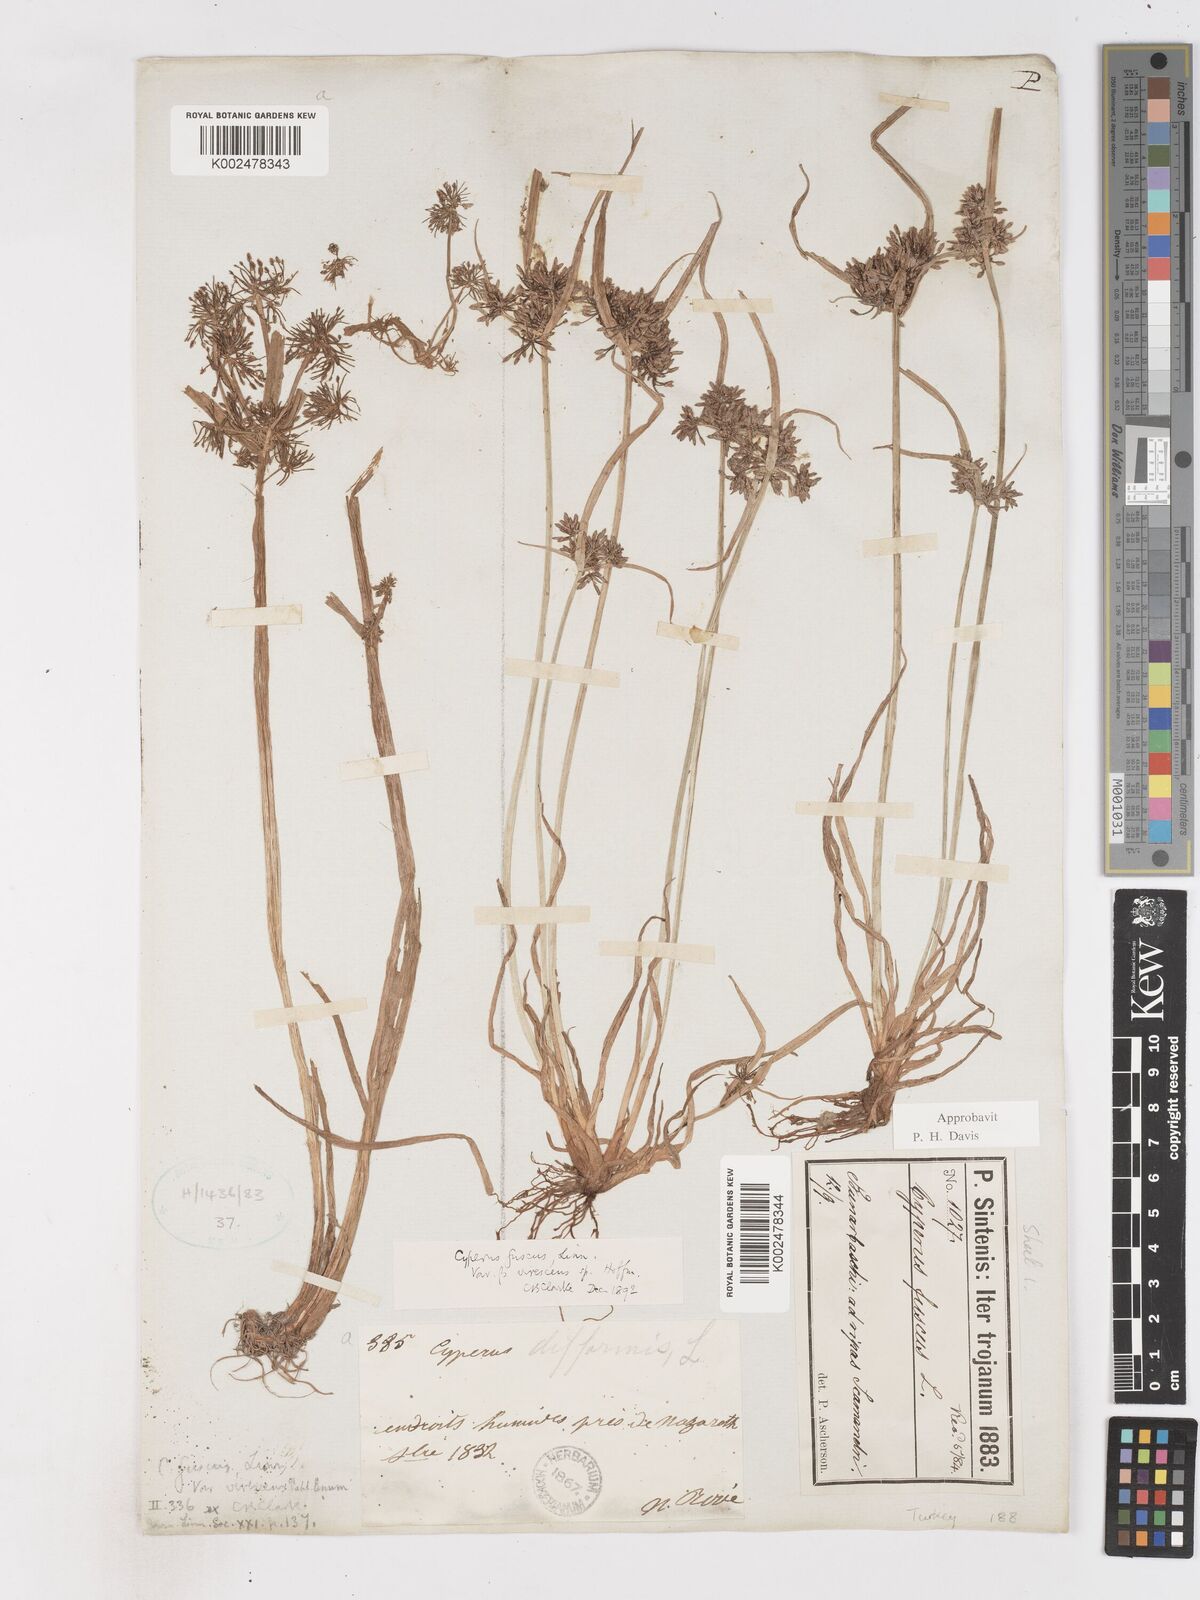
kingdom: Plantae
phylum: Tracheophyta
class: Liliopsida
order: Poales
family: Cyperaceae
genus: Cyperus
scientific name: Cyperus fuscus
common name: Brown galingale
